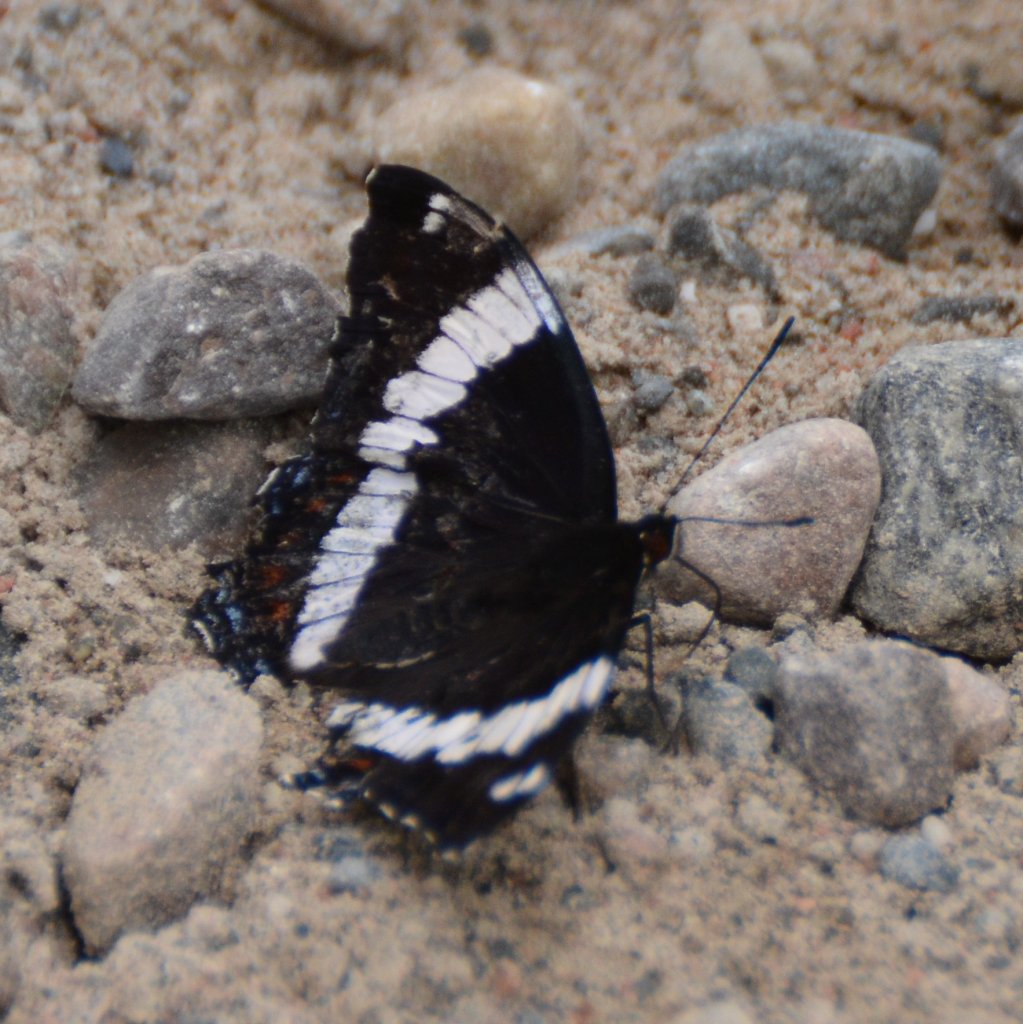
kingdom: Animalia
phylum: Arthropoda
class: Insecta
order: Lepidoptera
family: Nymphalidae
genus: Limenitis
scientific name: Limenitis arthemis
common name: Red-spotted Admiral
